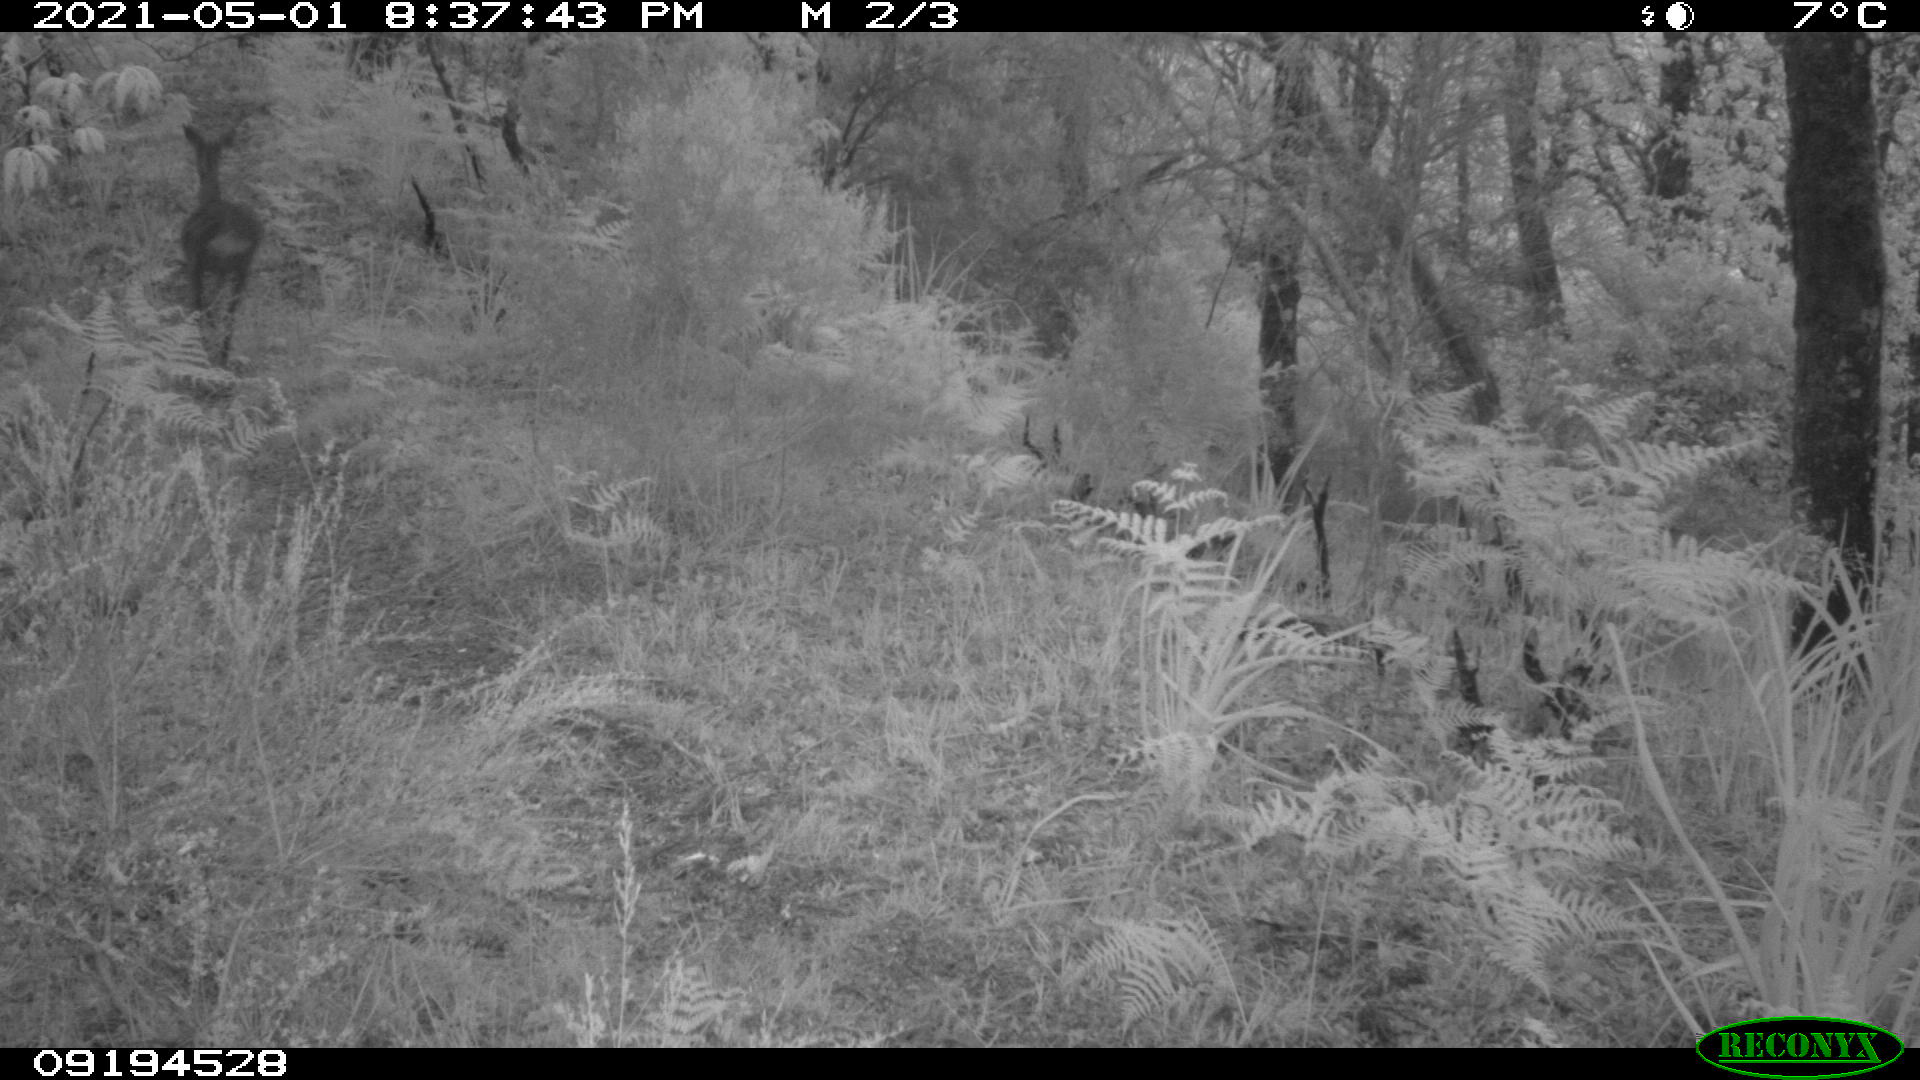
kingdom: Animalia
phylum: Chordata
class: Mammalia
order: Artiodactyla
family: Cervidae
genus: Capreolus
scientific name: Capreolus capreolus
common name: Western roe deer
